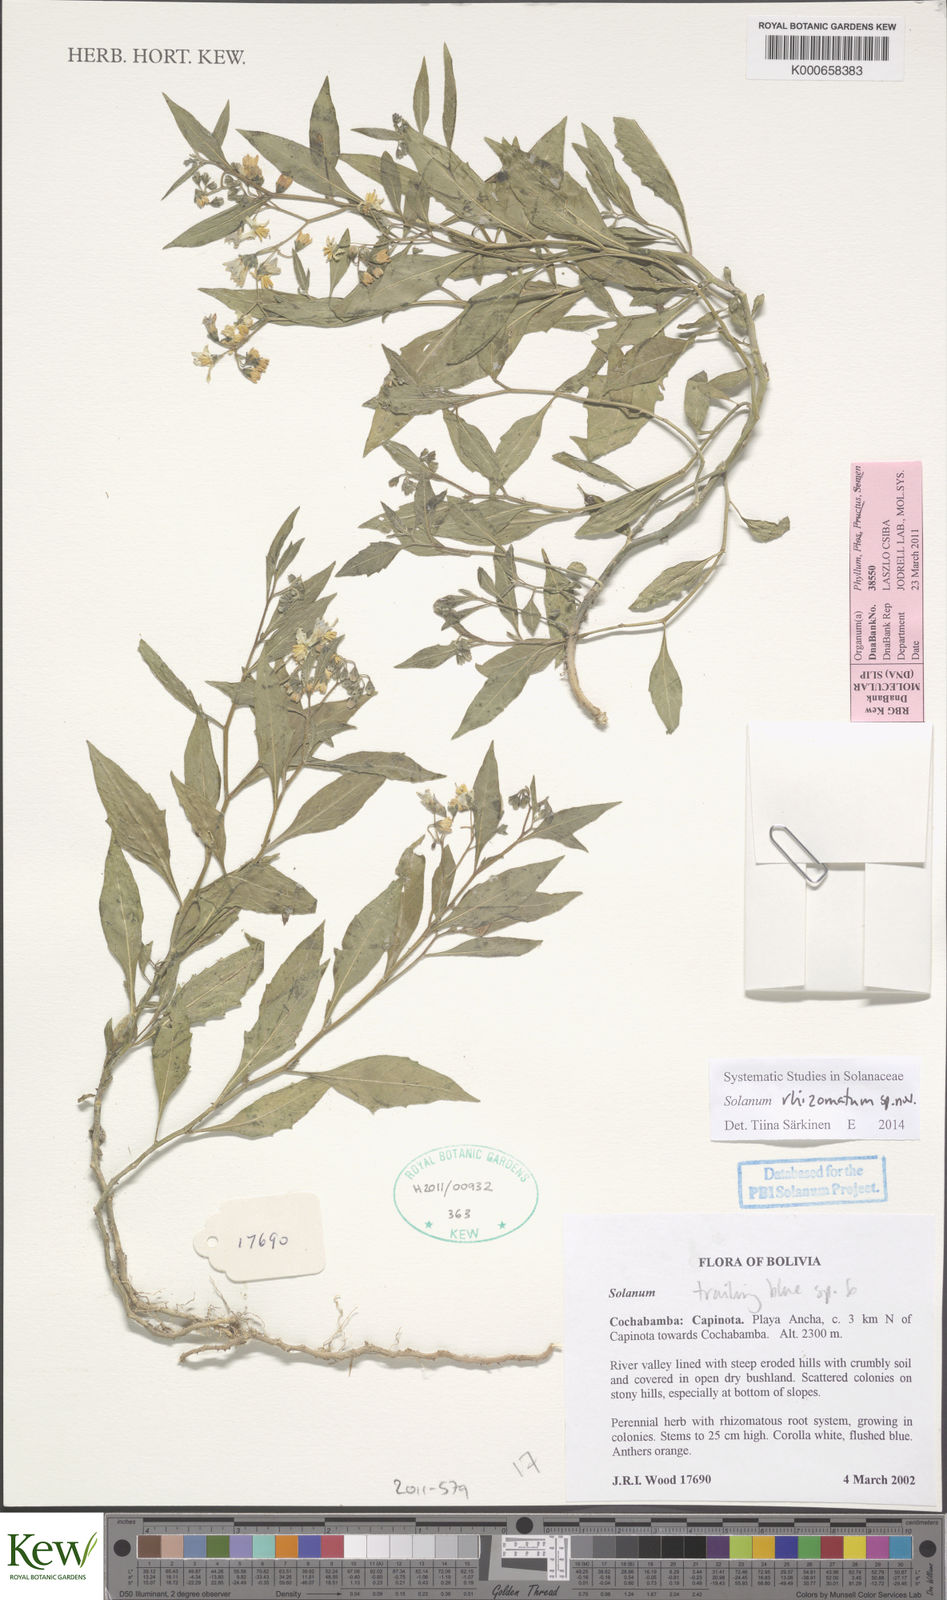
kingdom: Plantae
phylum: Tracheophyta
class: Magnoliopsida
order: Solanales
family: Solanaceae
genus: Solanum
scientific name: Solanum
